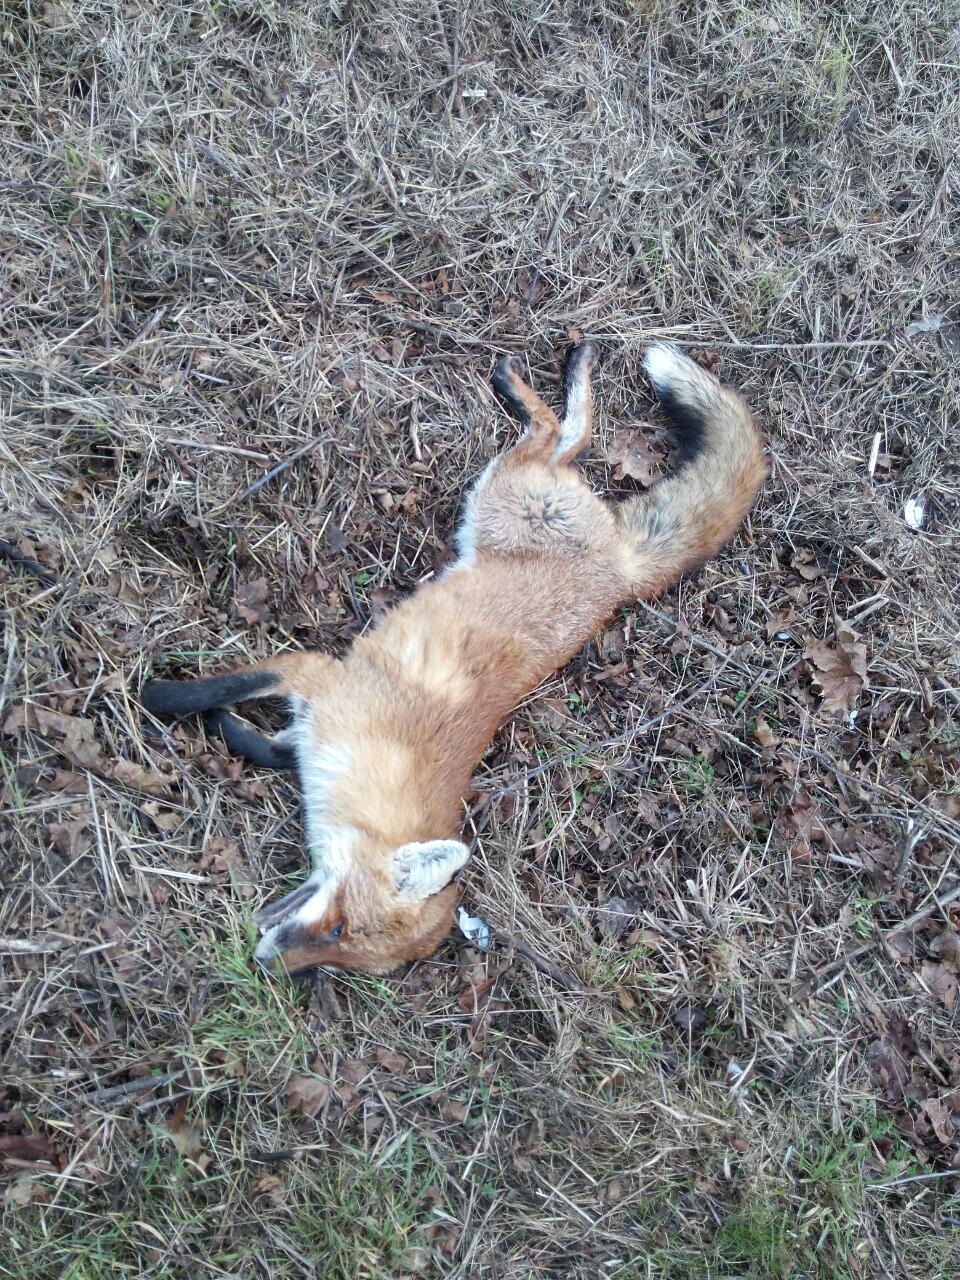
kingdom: Animalia
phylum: Chordata
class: Mammalia
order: Carnivora
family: Canidae
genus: Vulpes
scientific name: Vulpes vulpes
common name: Red fox
